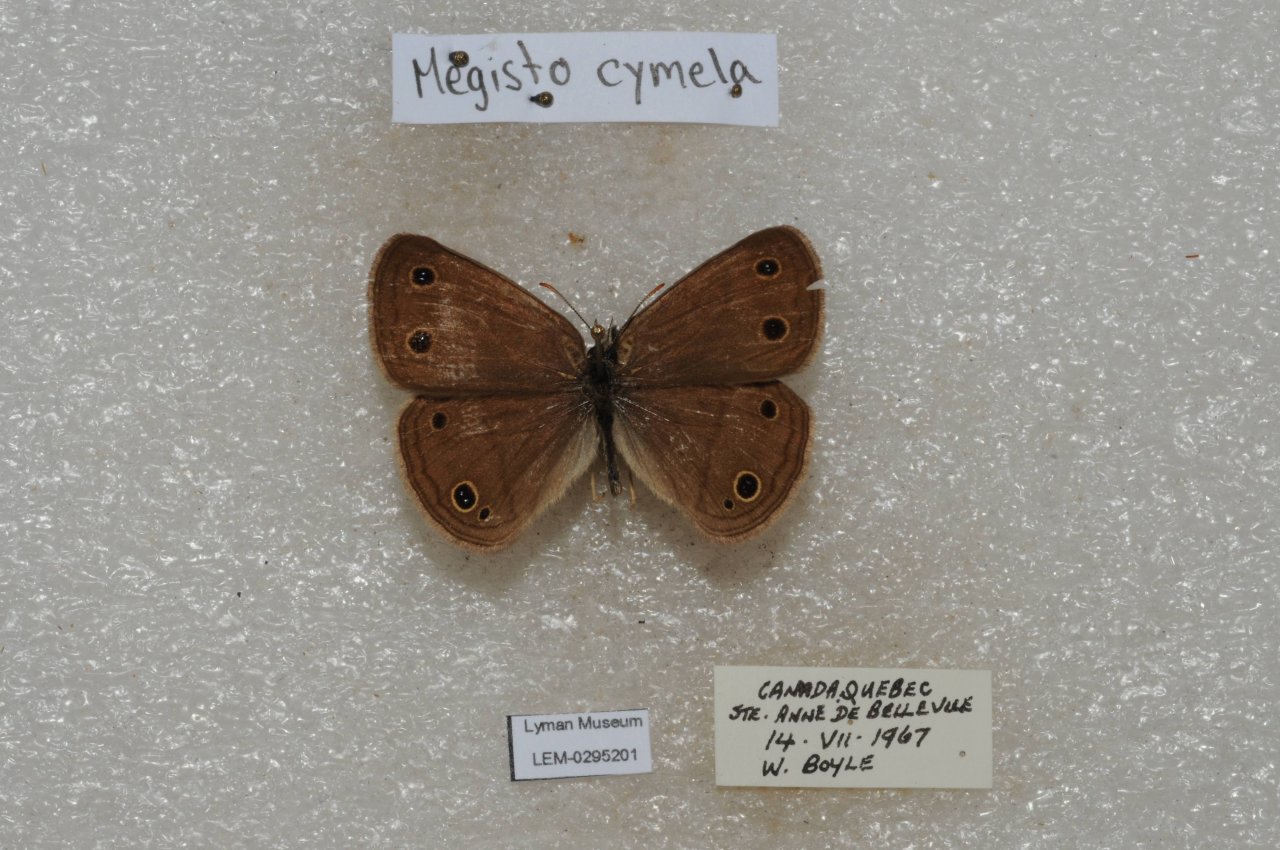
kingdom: Animalia
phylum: Arthropoda
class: Insecta
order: Lepidoptera
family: Nymphalidae
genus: Euptychia
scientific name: Euptychia cymela
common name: Little Wood Satyr
